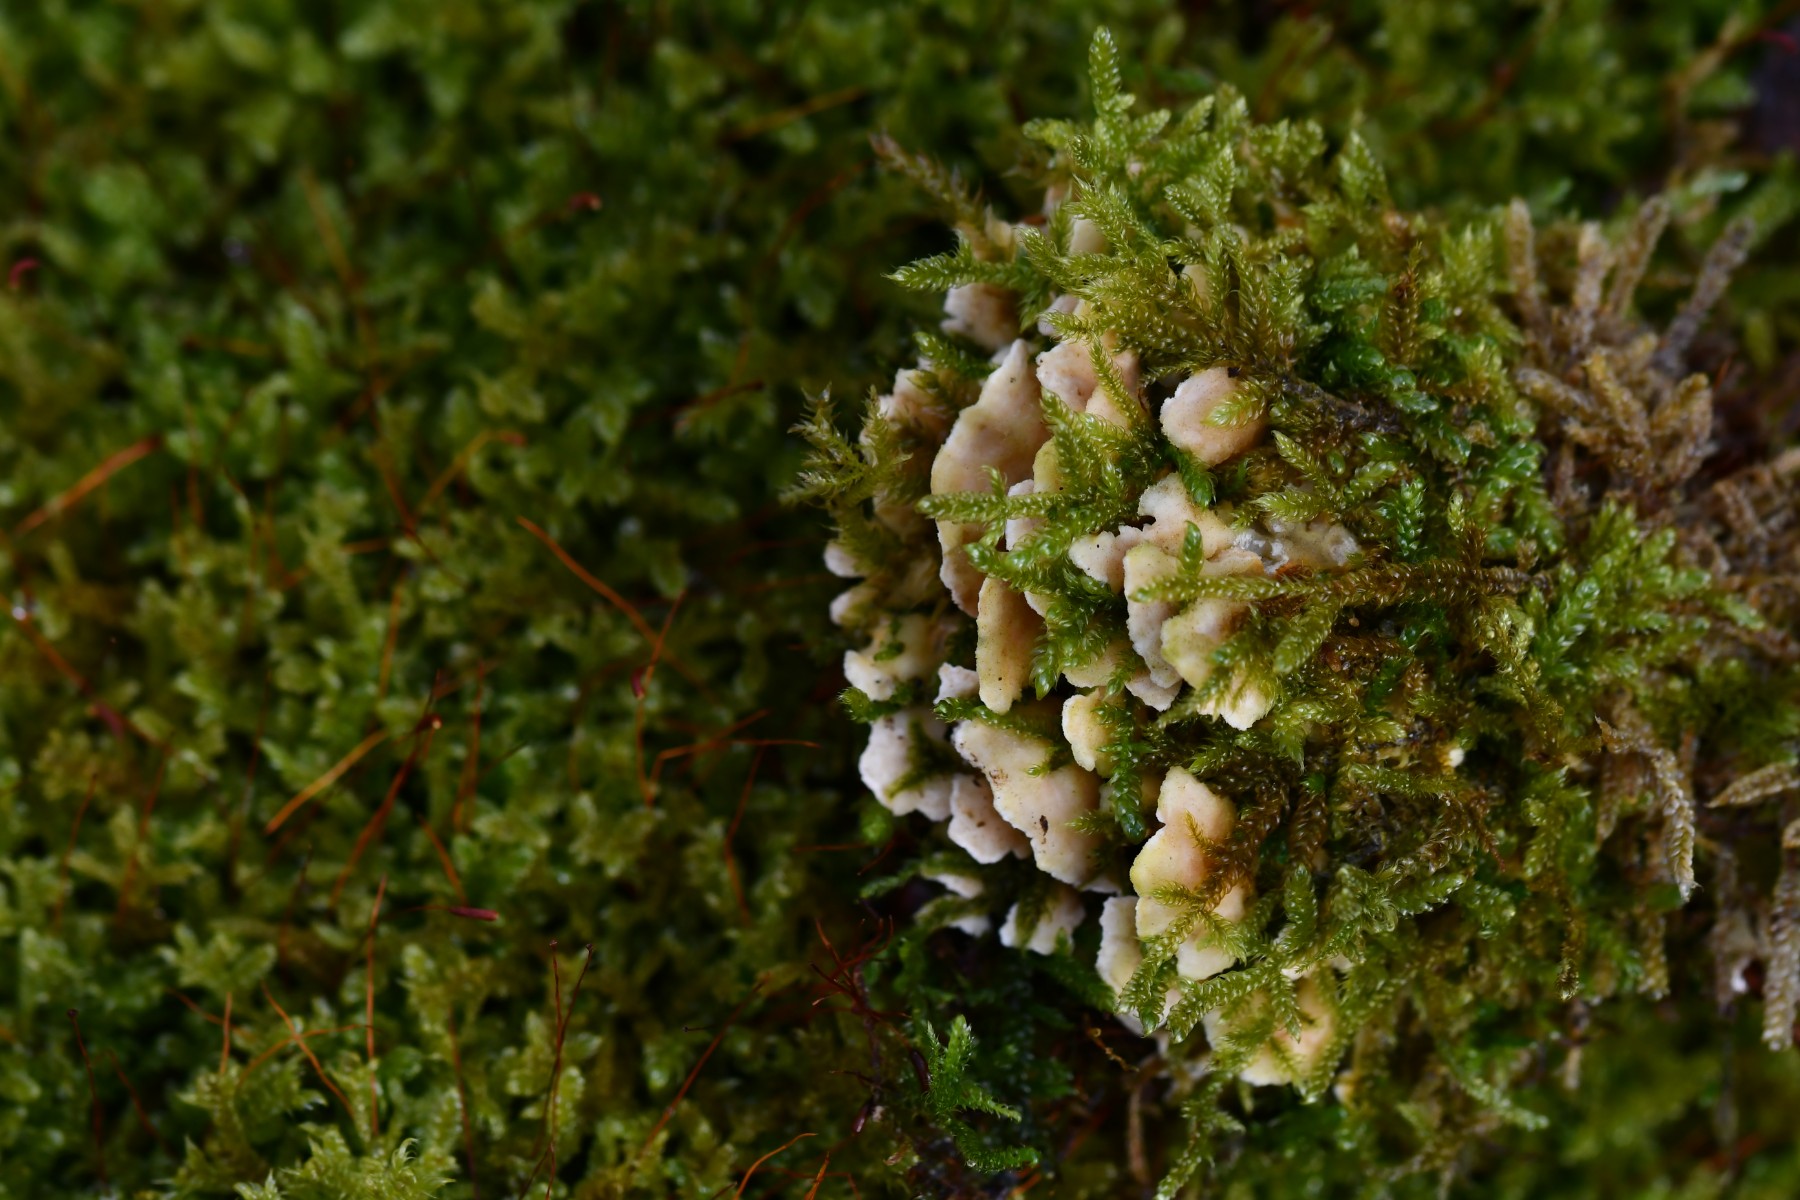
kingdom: Fungi
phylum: Basidiomycota
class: Agaricomycetes
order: Polyporales
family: Steccherinaceae
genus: Steccherinum
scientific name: Steccherinum ochraceum
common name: almindelig skønpig
